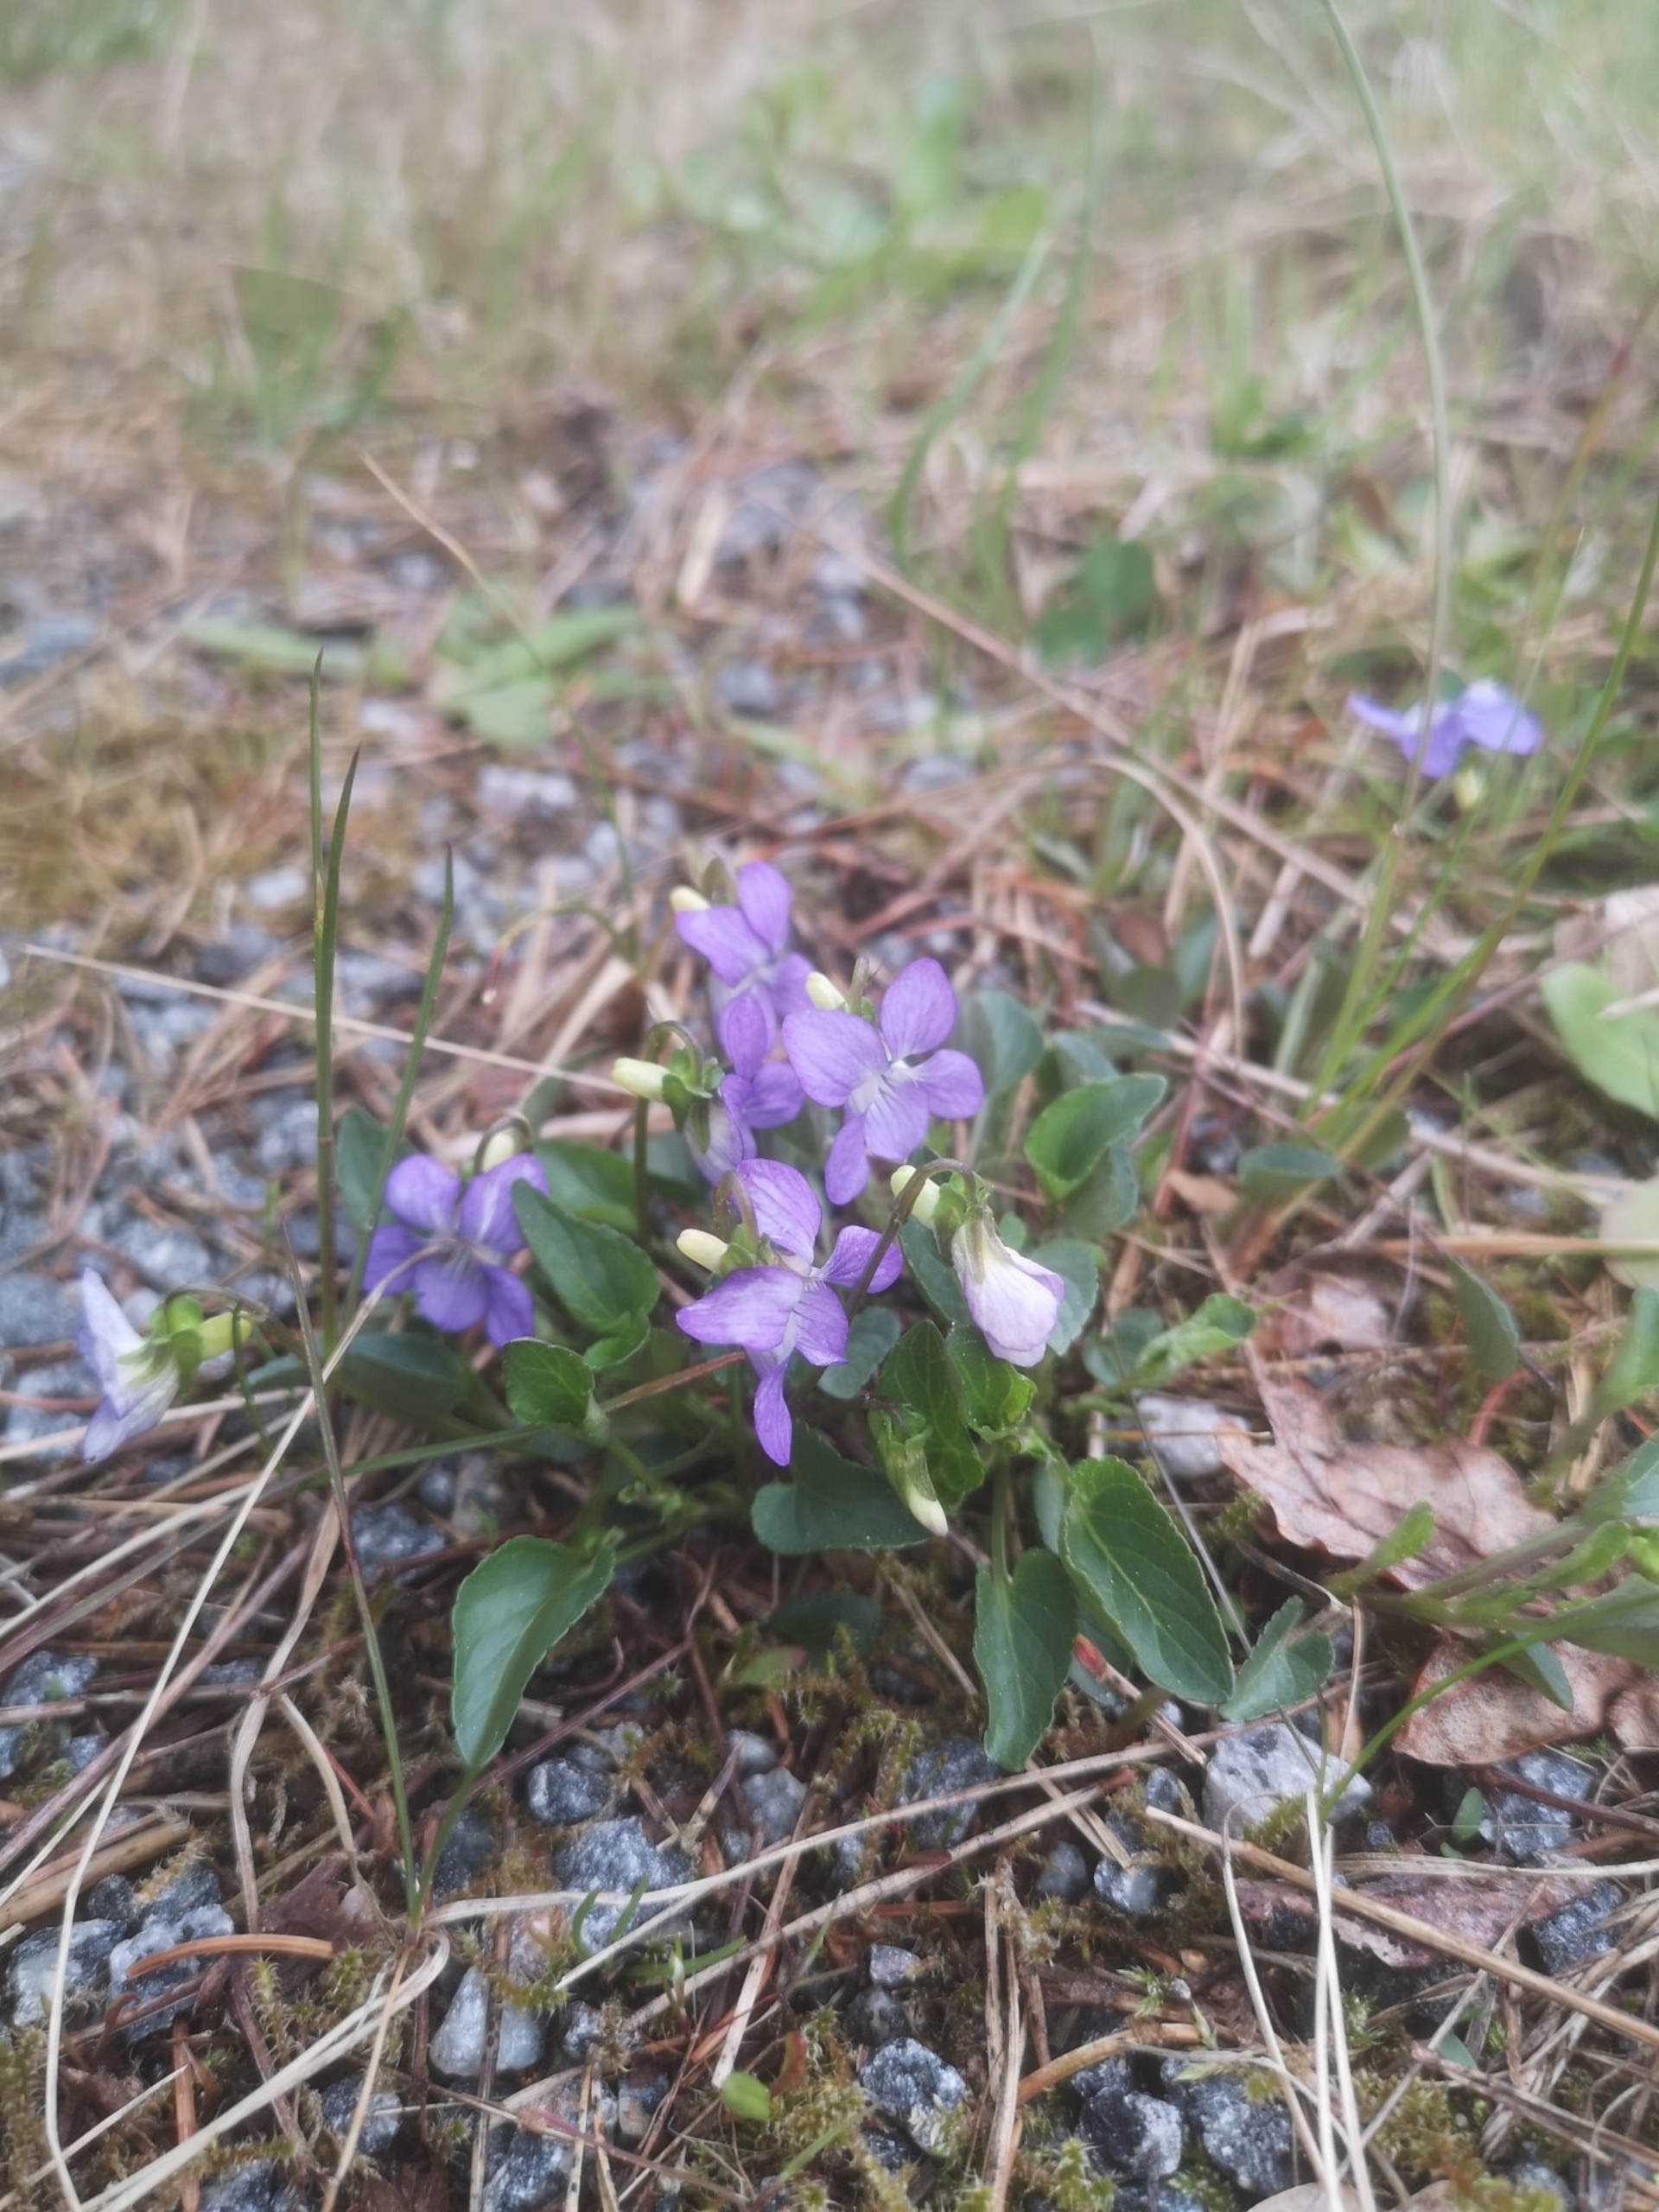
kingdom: Plantae
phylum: Tracheophyta
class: Magnoliopsida
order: Malpighiales
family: Violaceae
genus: Viola
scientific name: Viola canina
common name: Hunde-viol
